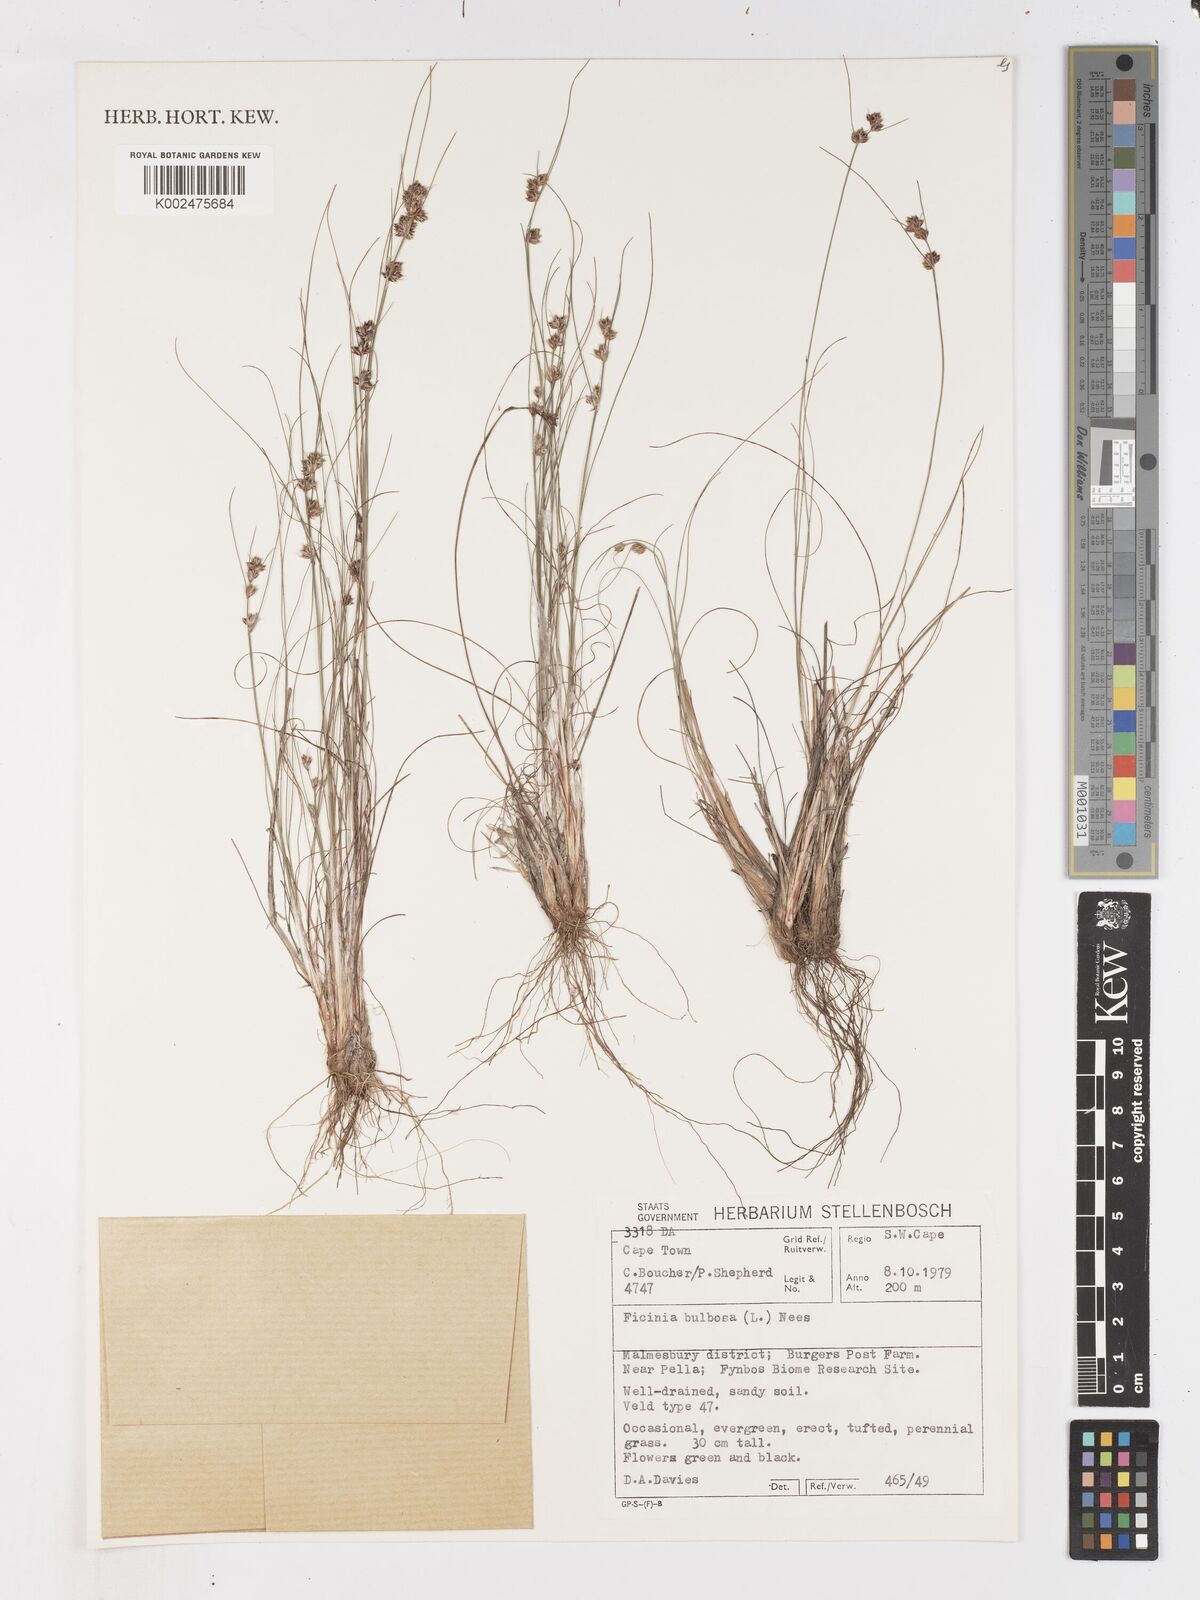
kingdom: Plantae
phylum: Tracheophyta
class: Liliopsida
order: Poales
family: Cyperaceae
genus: Ficinia
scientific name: Ficinia bulbosa
